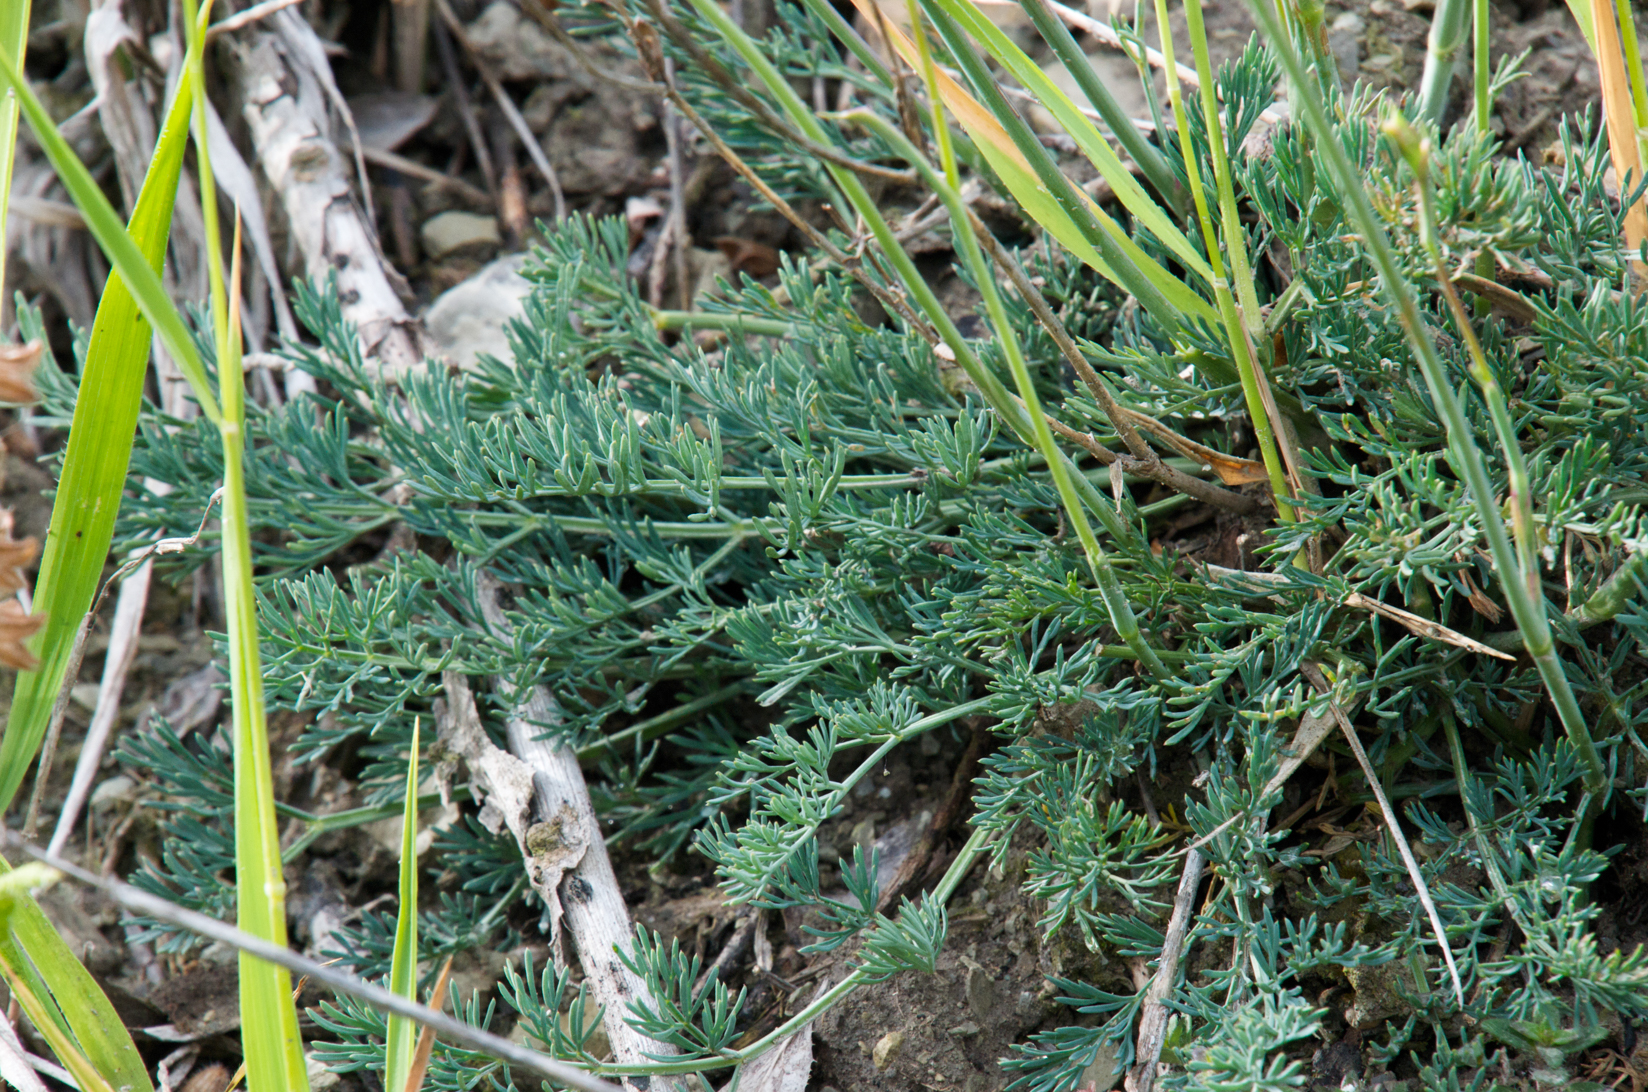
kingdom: Plantae
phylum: Tracheophyta
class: Magnoliopsida
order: Apiales
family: Apiaceae
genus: Hippomarathrum
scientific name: Hippomarathrum vulgare
